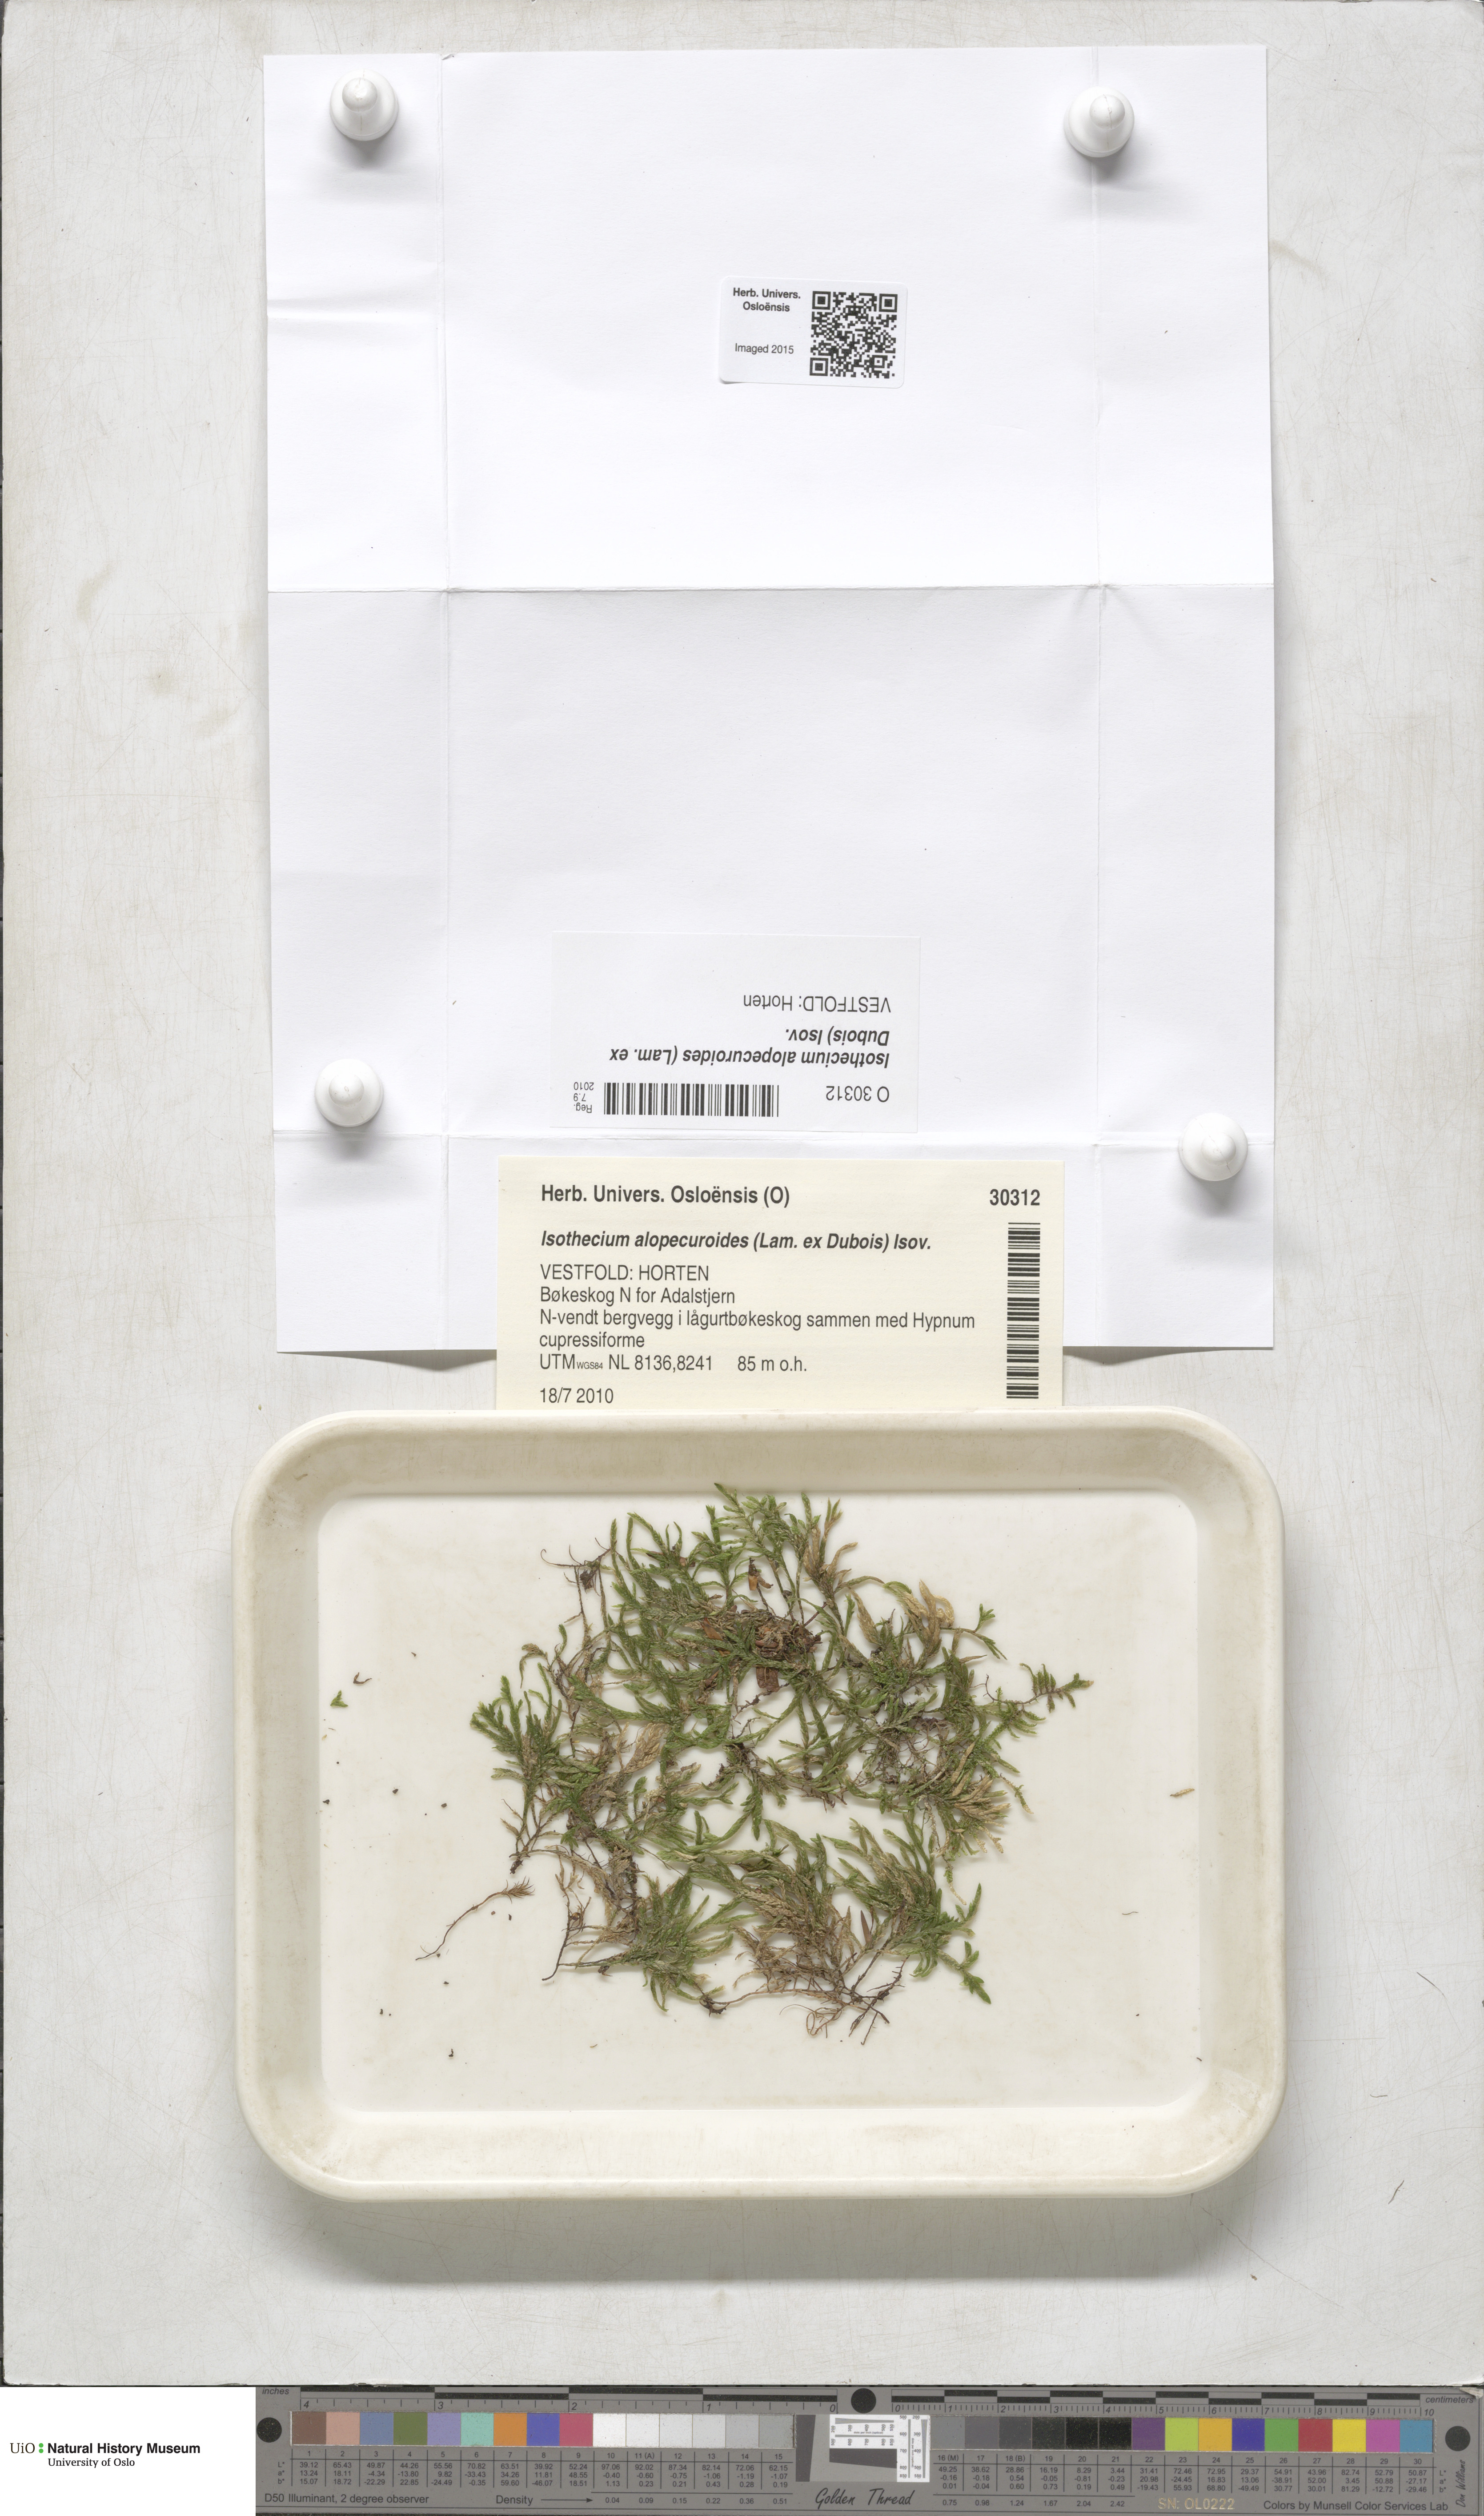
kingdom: Plantae
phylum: Bryophyta
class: Bryopsida
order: Hypnales
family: Lembophyllaceae
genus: Isothecium
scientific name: Isothecium alopecuroides
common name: Larger mouse-tail moss
